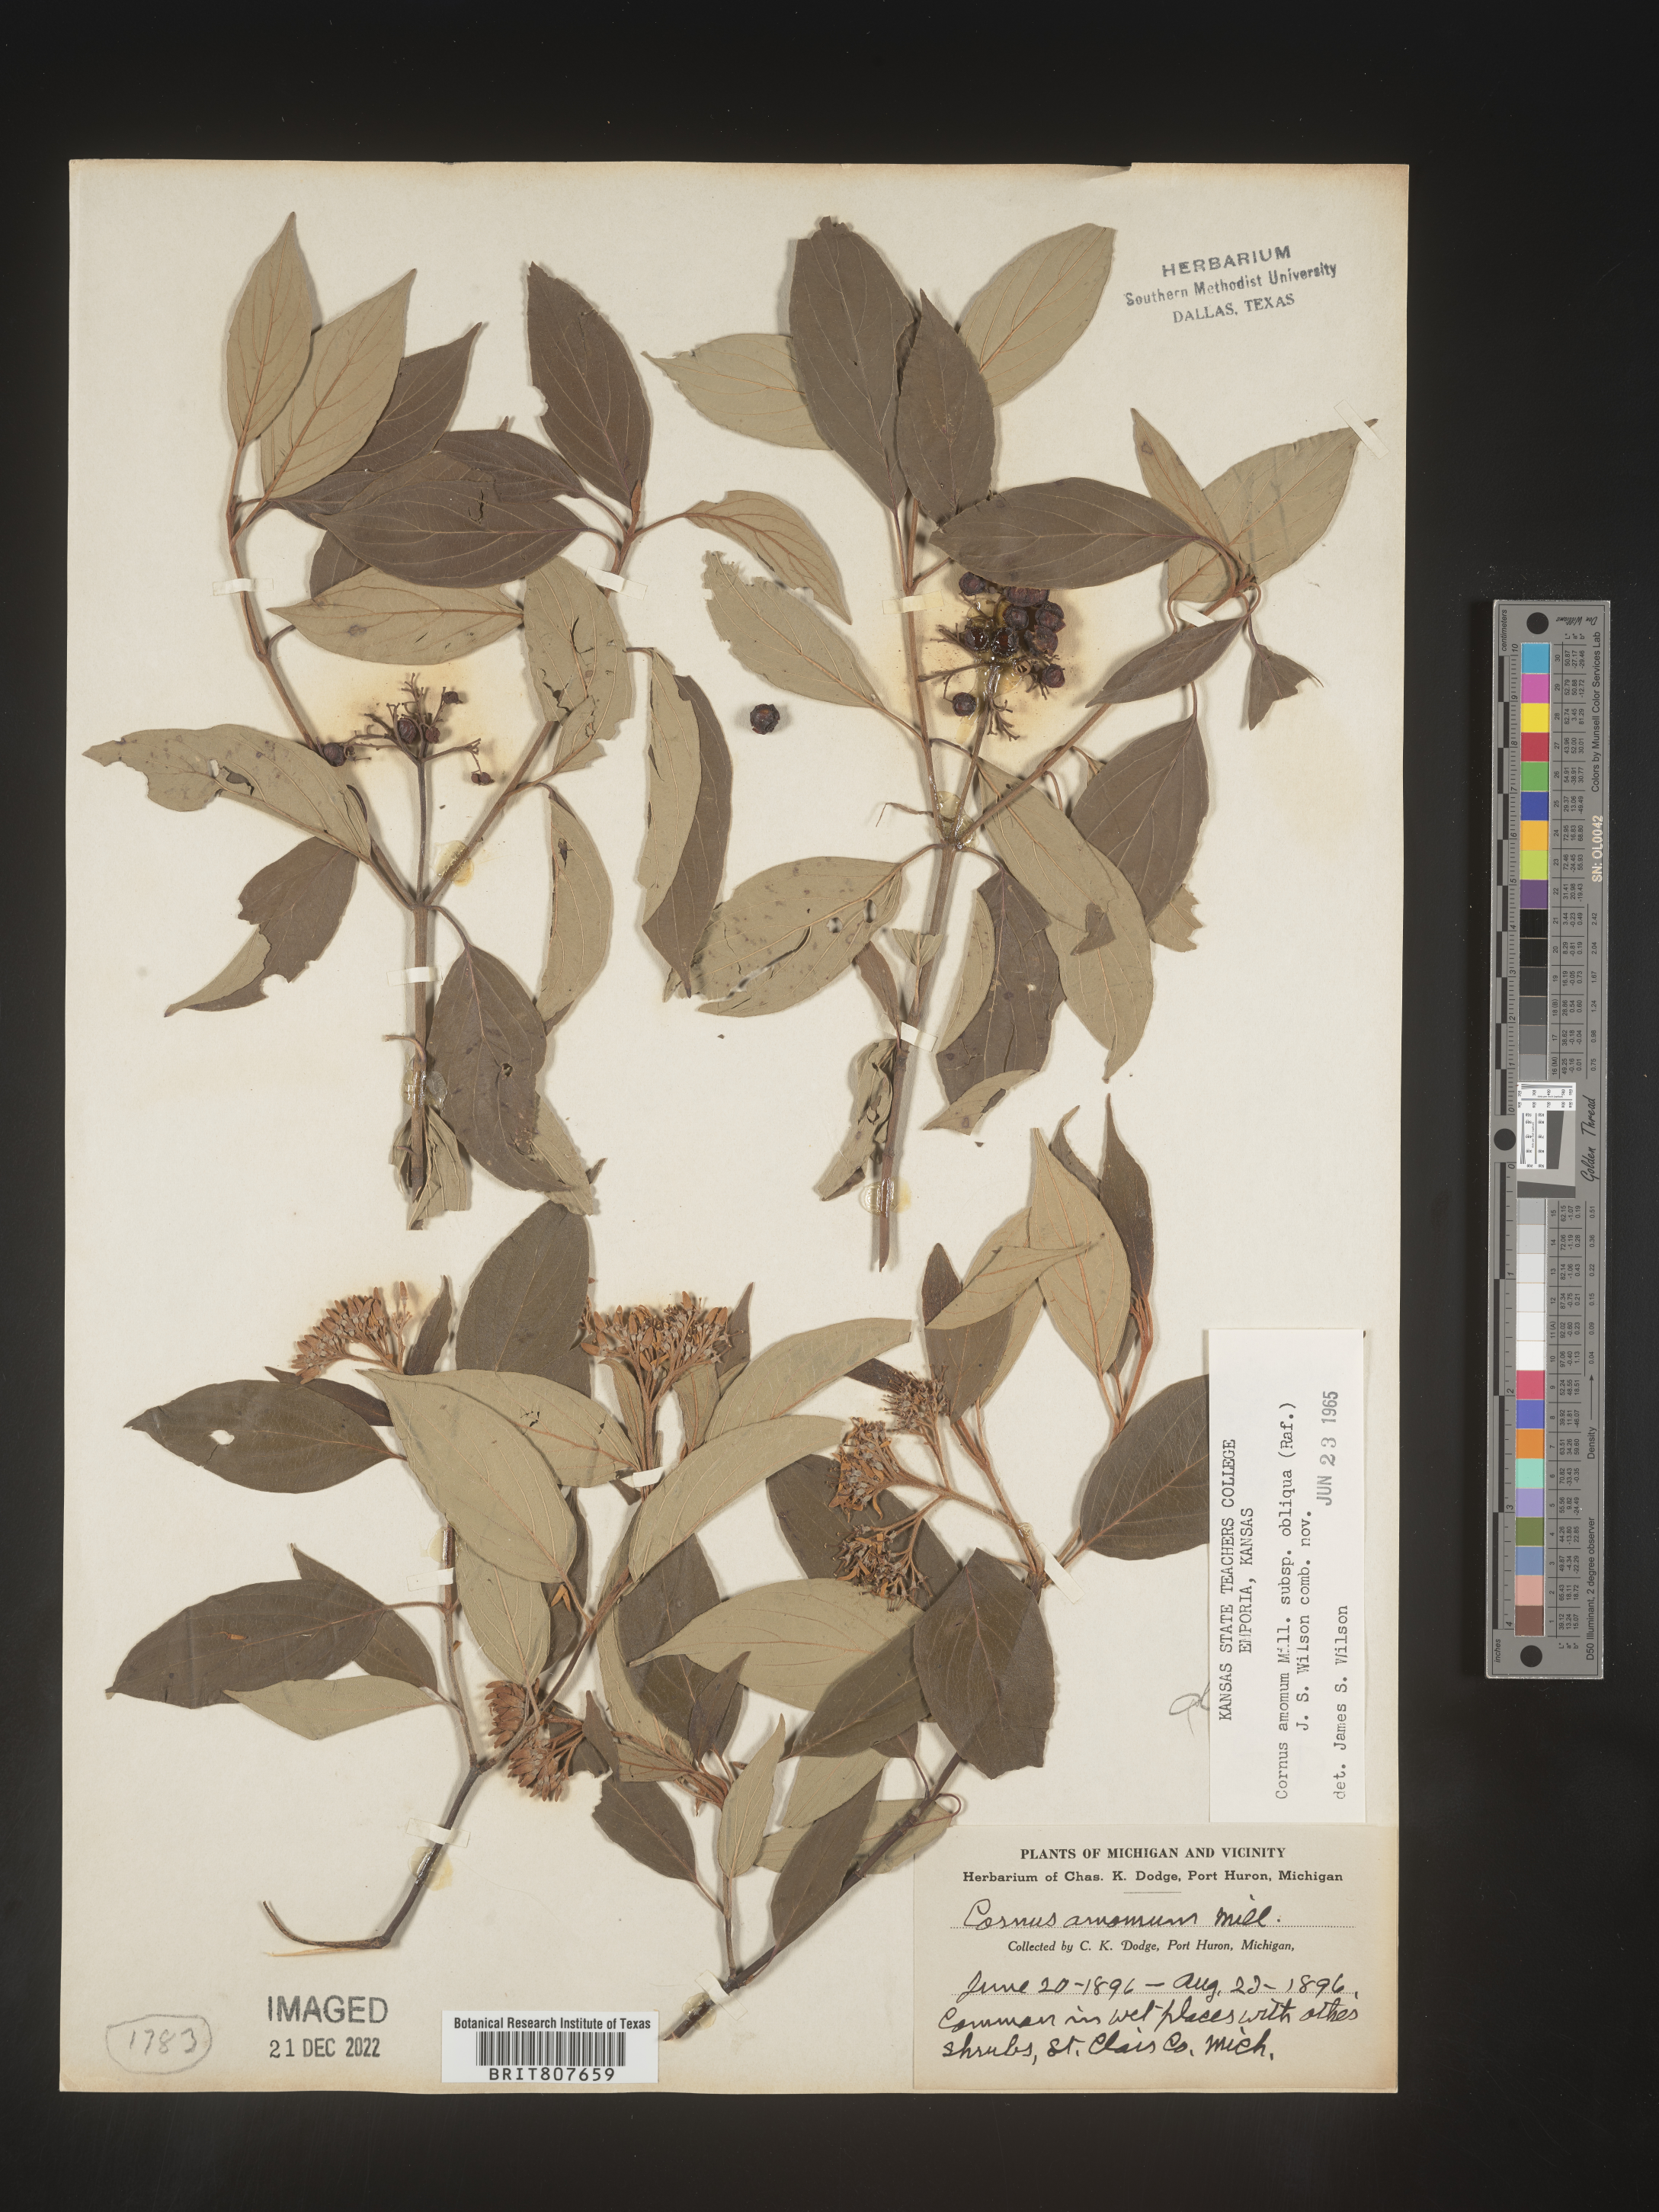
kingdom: Plantae
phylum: Tracheophyta
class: Magnoliopsida
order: Cornales
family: Cornaceae
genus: Cornus
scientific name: Cornus obliqua
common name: Pale dogwood
